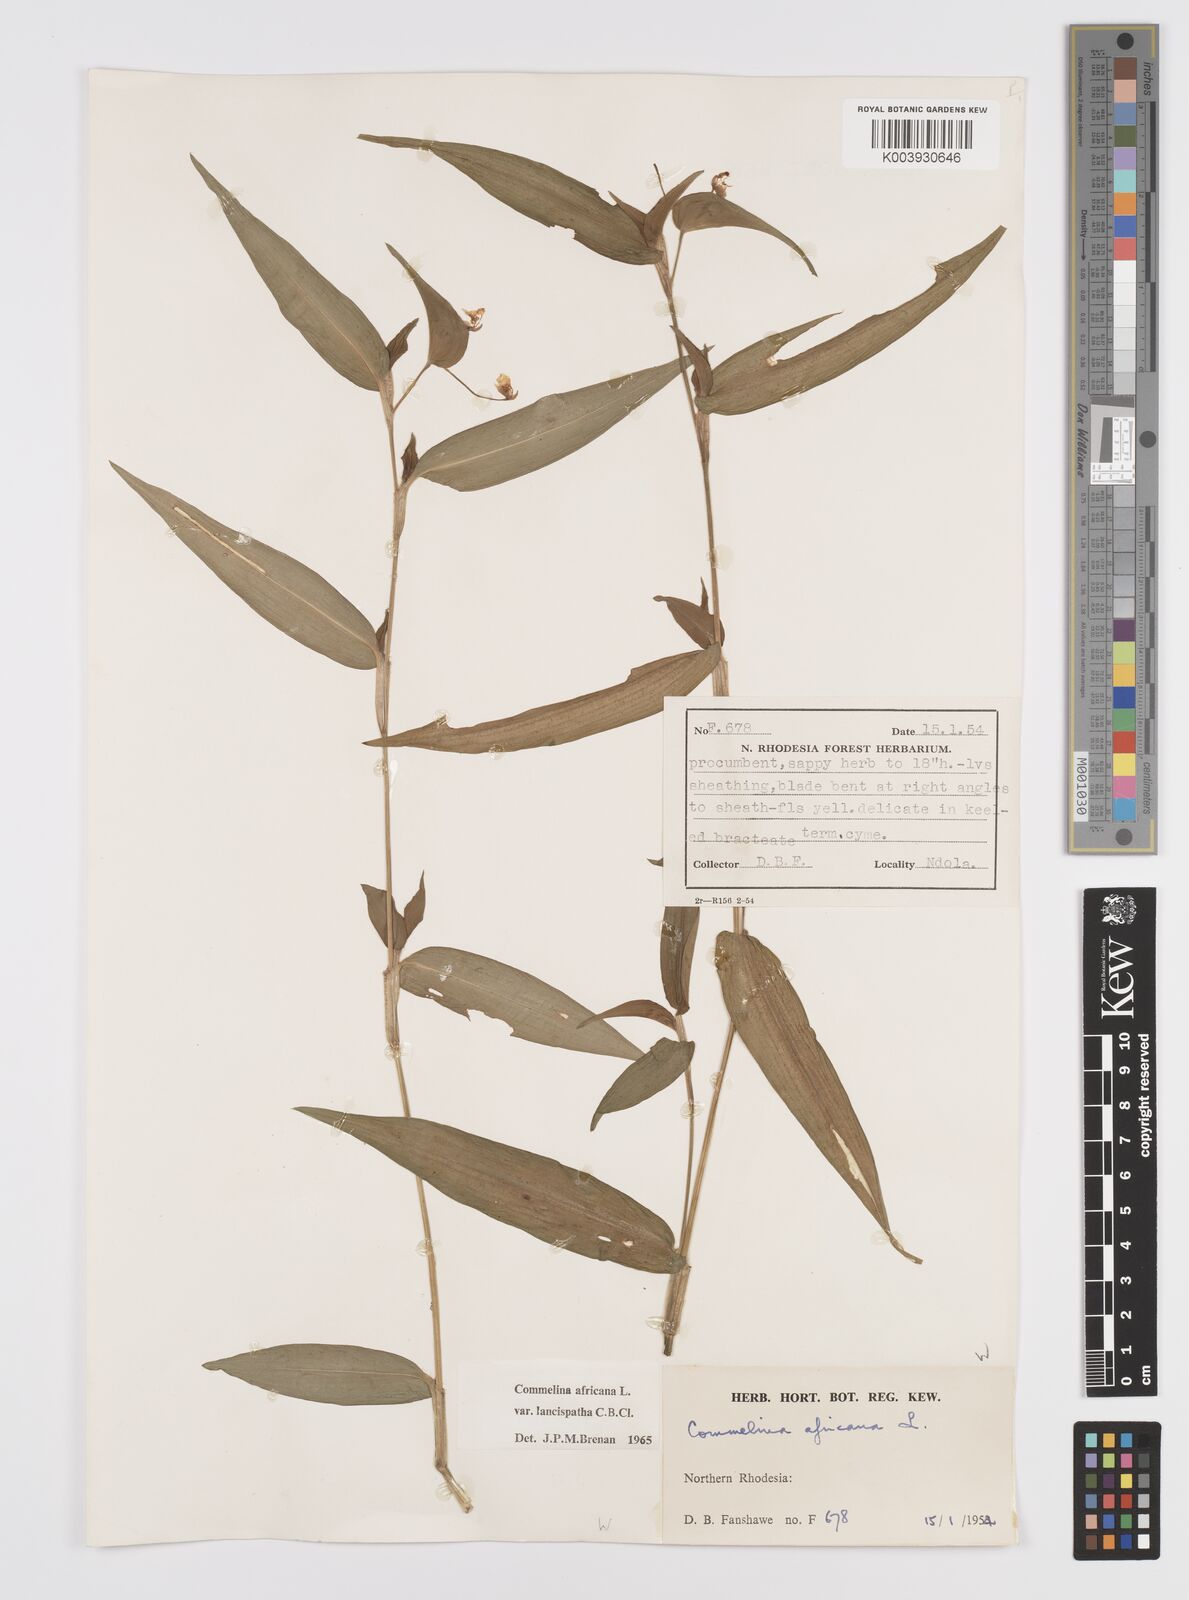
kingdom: Plantae
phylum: Tracheophyta
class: Liliopsida
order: Commelinales
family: Commelinaceae
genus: Commelina
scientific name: Commelina africana
